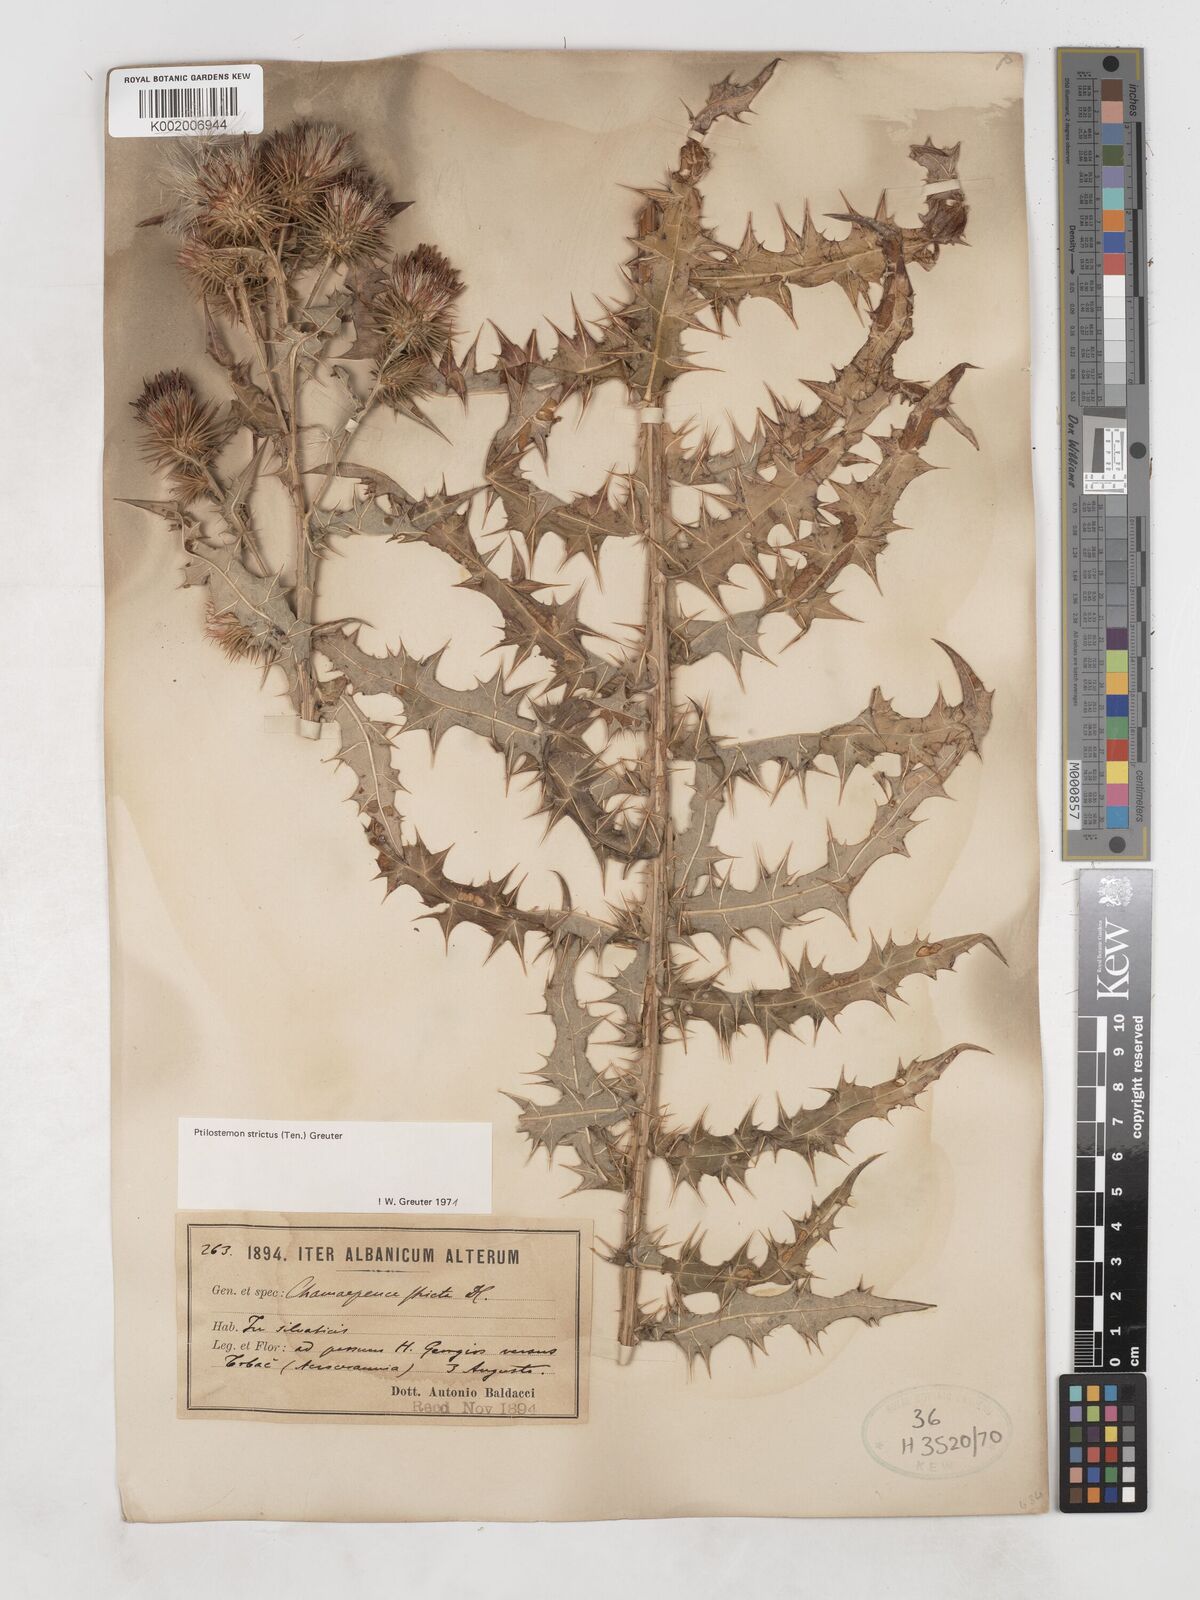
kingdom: Plantae
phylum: Tracheophyta
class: Magnoliopsida
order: Asterales
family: Asteraceae
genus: Ptilostemon
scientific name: Ptilostemon strictus
